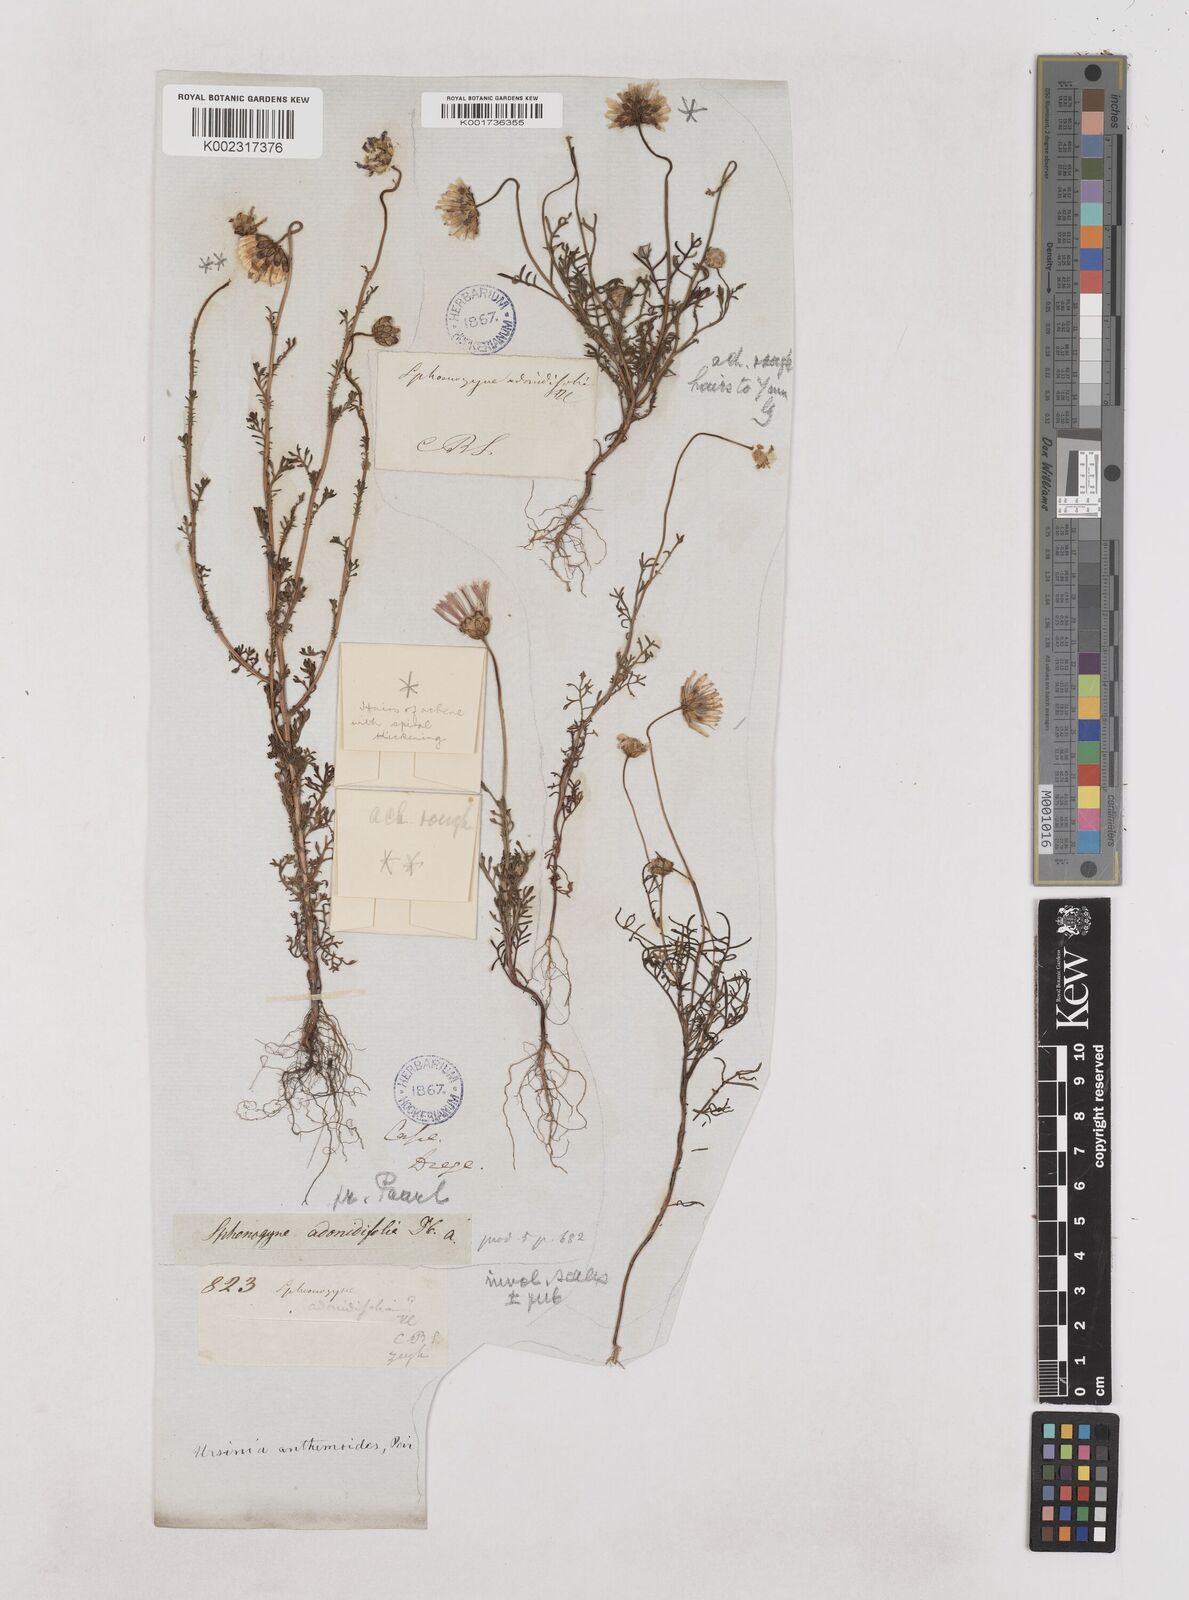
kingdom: Plantae
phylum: Tracheophyta
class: Magnoliopsida
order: Asterales
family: Asteraceae
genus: Ursinia
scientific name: Ursinia anthemoides
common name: Ursinia
